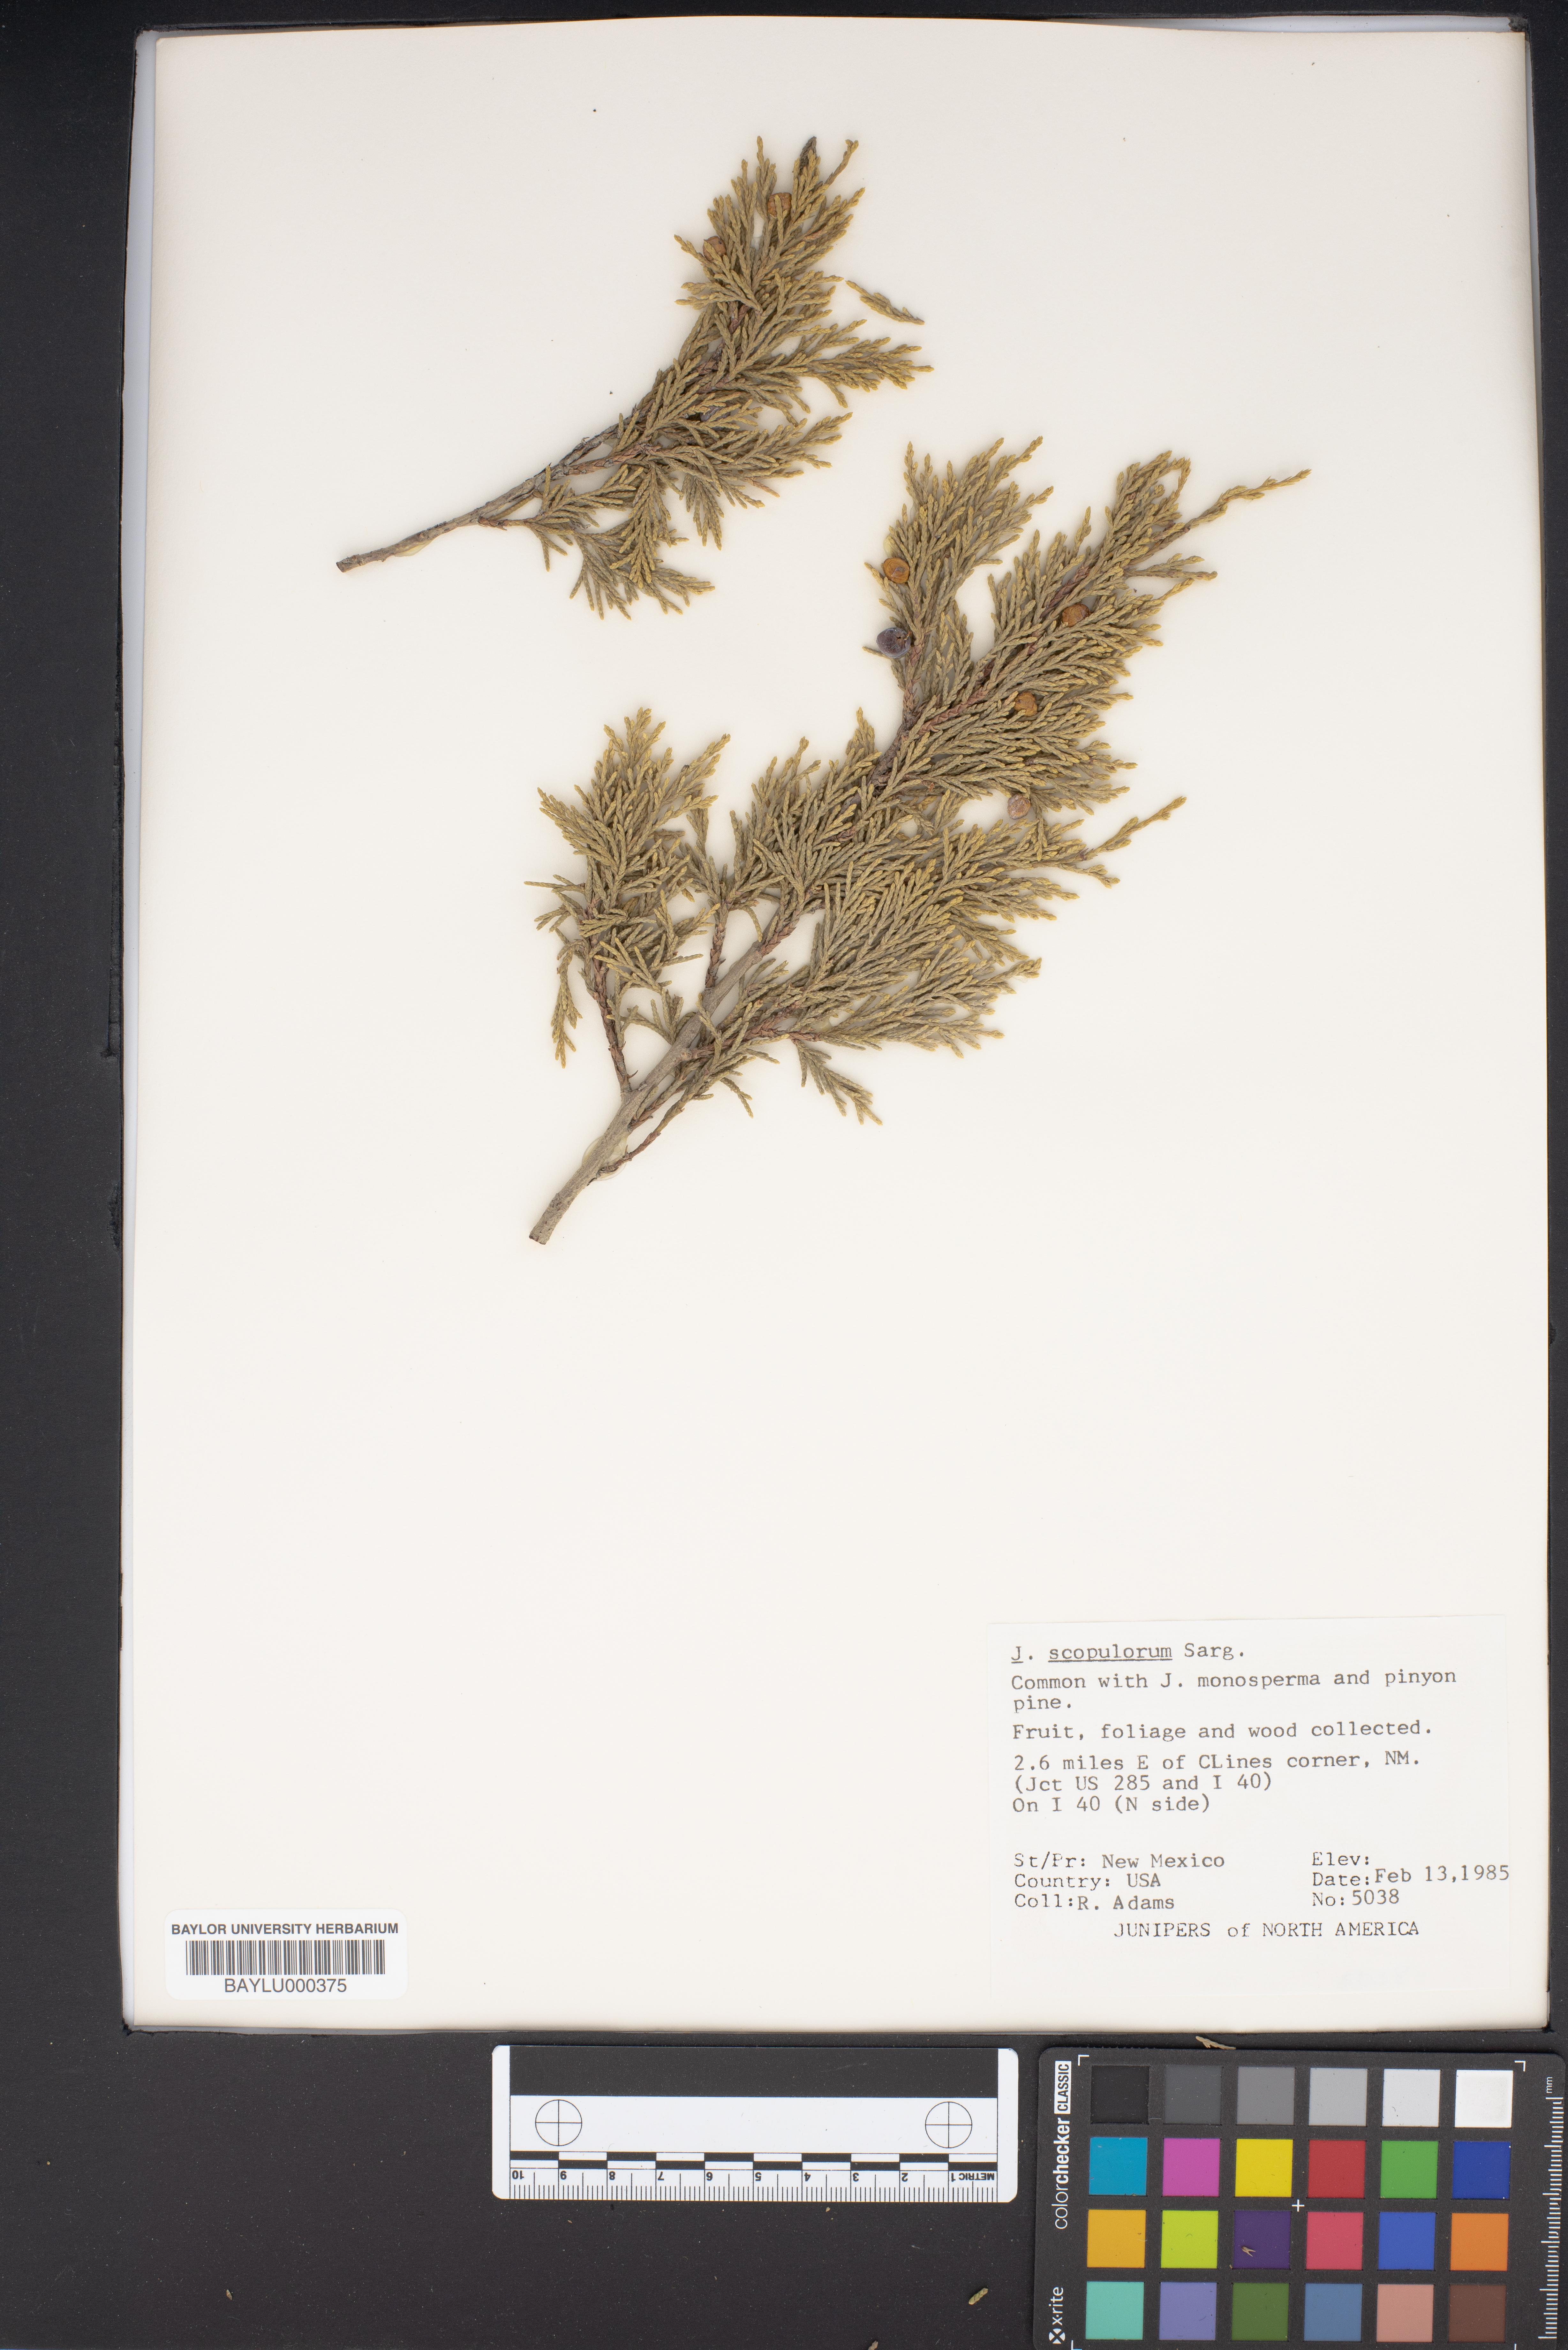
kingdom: Plantae
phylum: Tracheophyta
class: Pinopsida
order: Pinales
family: Cupressaceae
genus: Juniperus
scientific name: Juniperus scopulorum
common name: Rocky mountain juniper
